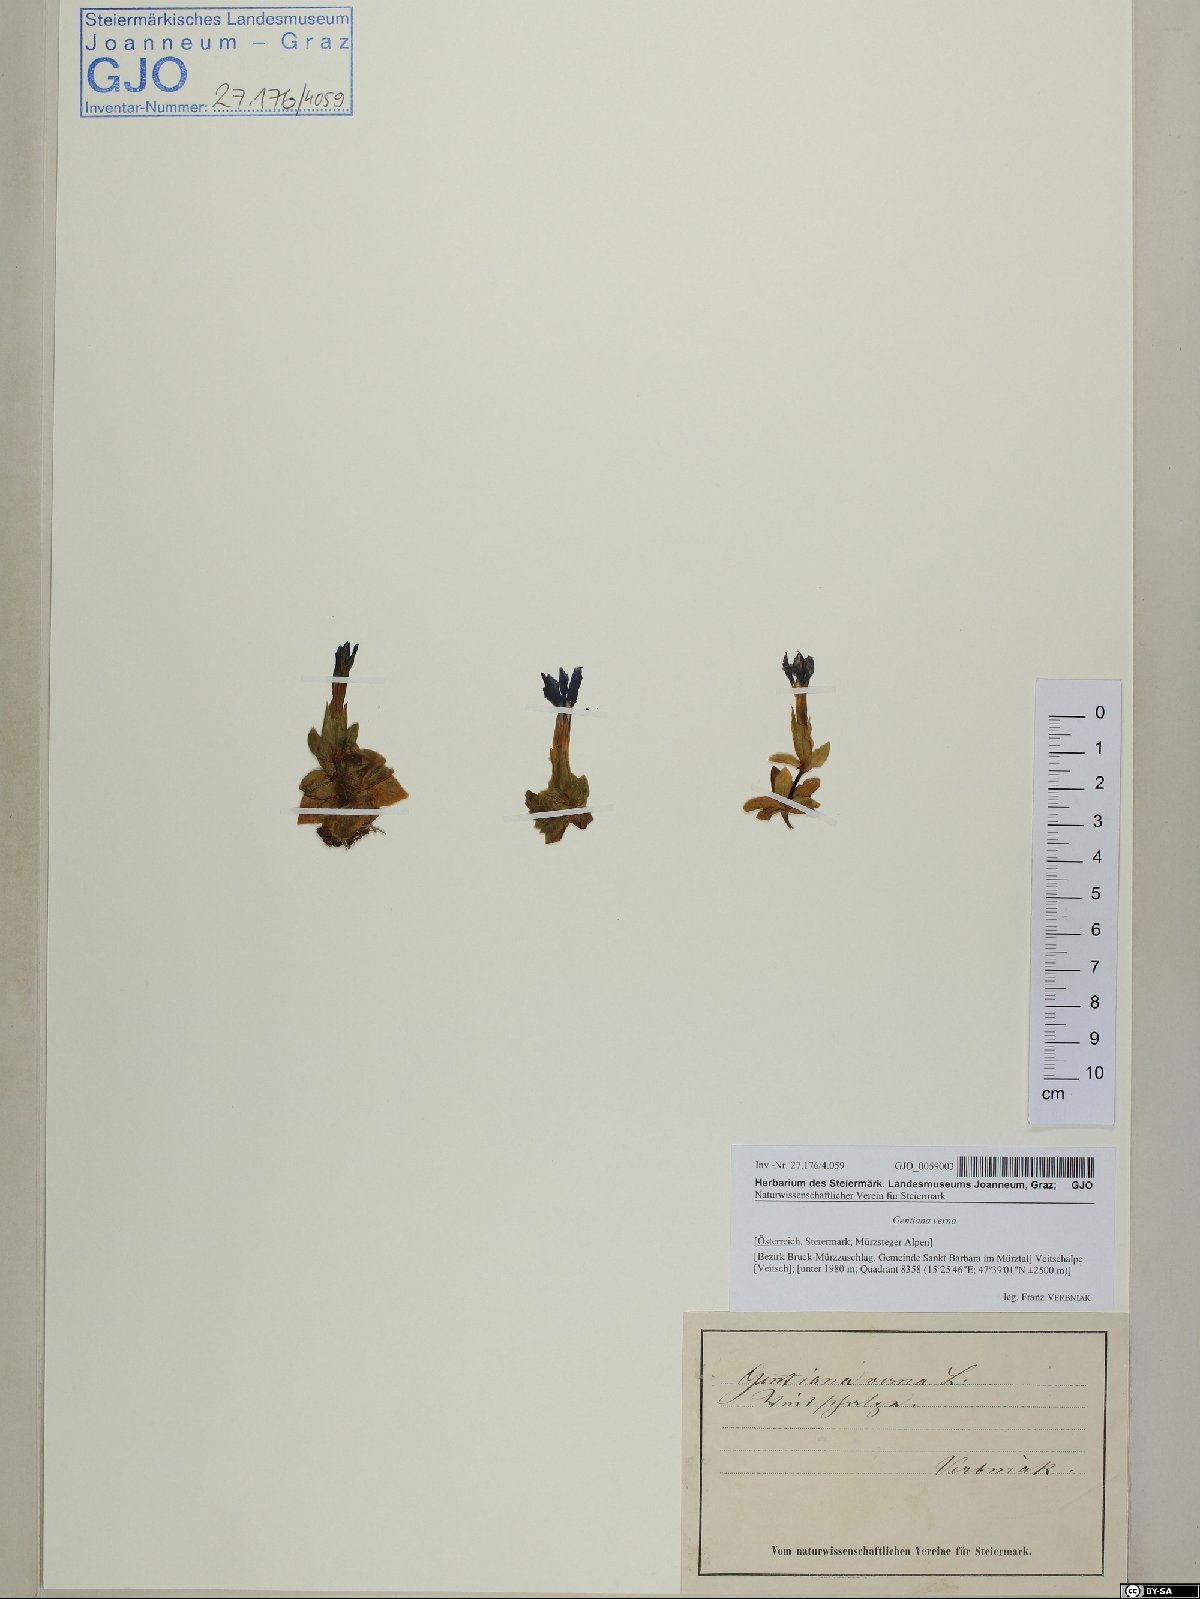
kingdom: Plantae
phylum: Tracheophyta
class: Magnoliopsida
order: Gentianales
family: Gentianaceae
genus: Gentiana
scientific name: Gentiana verna
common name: Spring gentian
